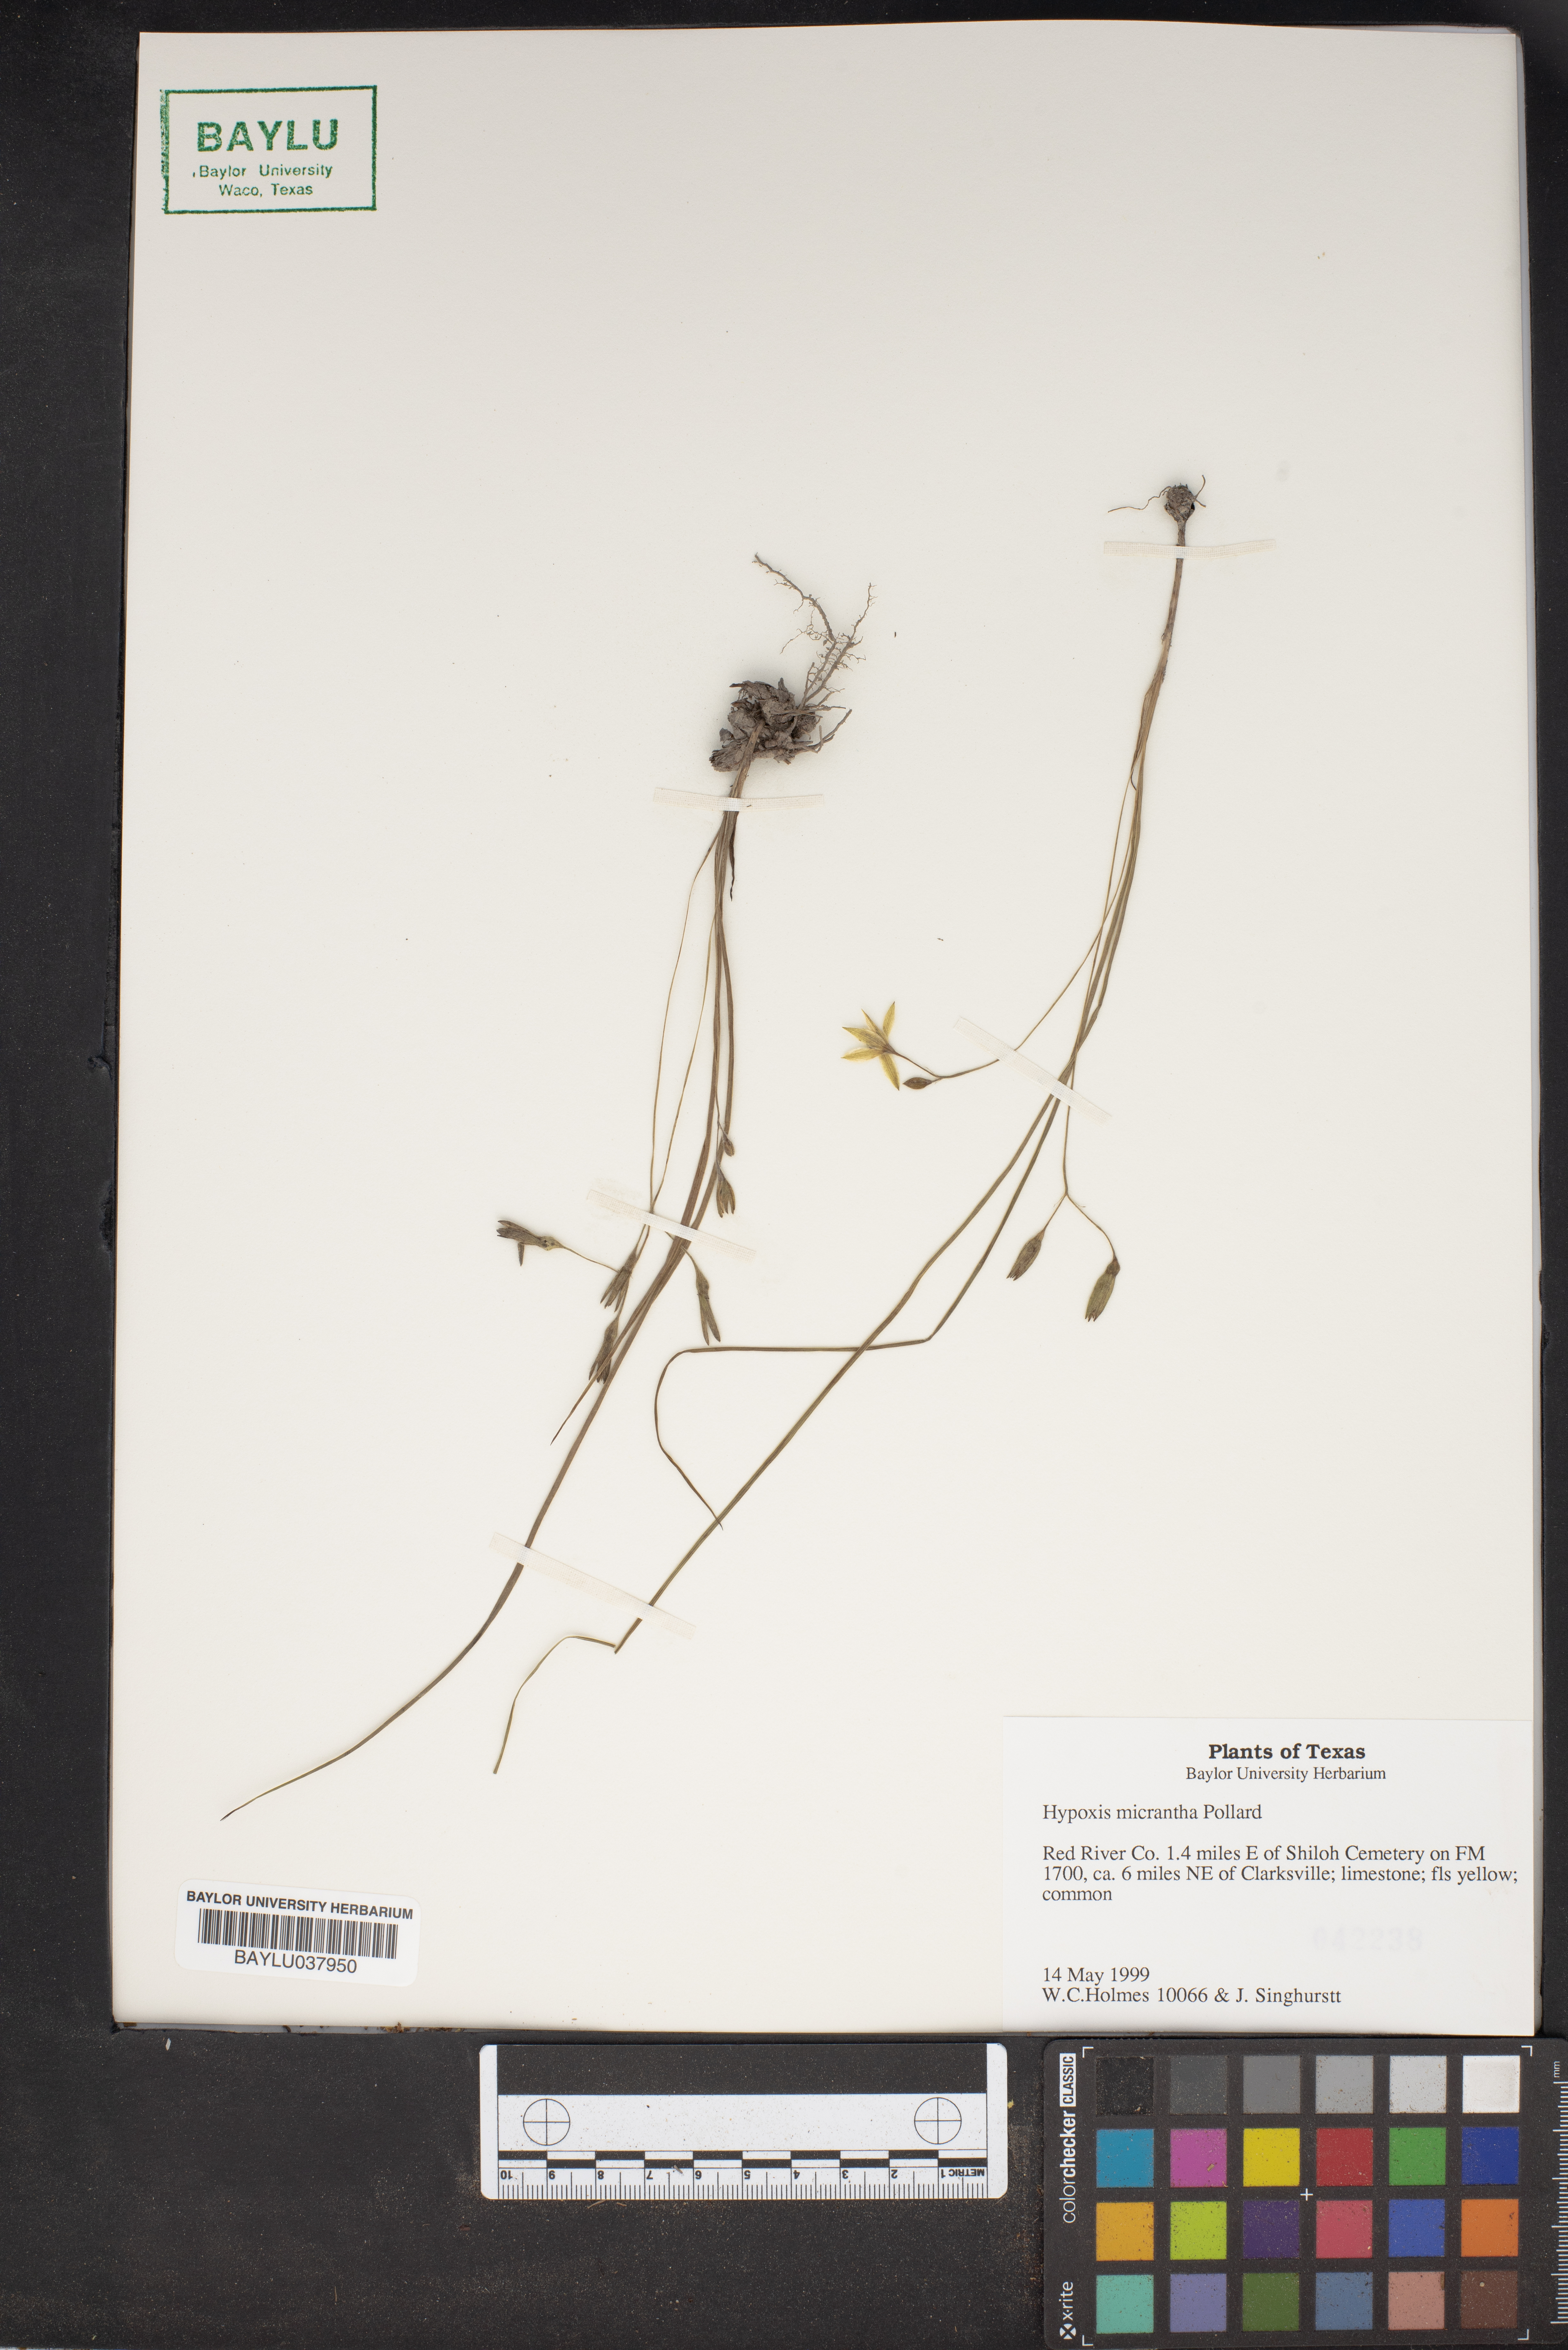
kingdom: Plantae
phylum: Tracheophyta
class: Liliopsida
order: Asparagales
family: Hypoxidaceae
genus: Hypoxis
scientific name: Hypoxis hirsuta
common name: Common goldstar
